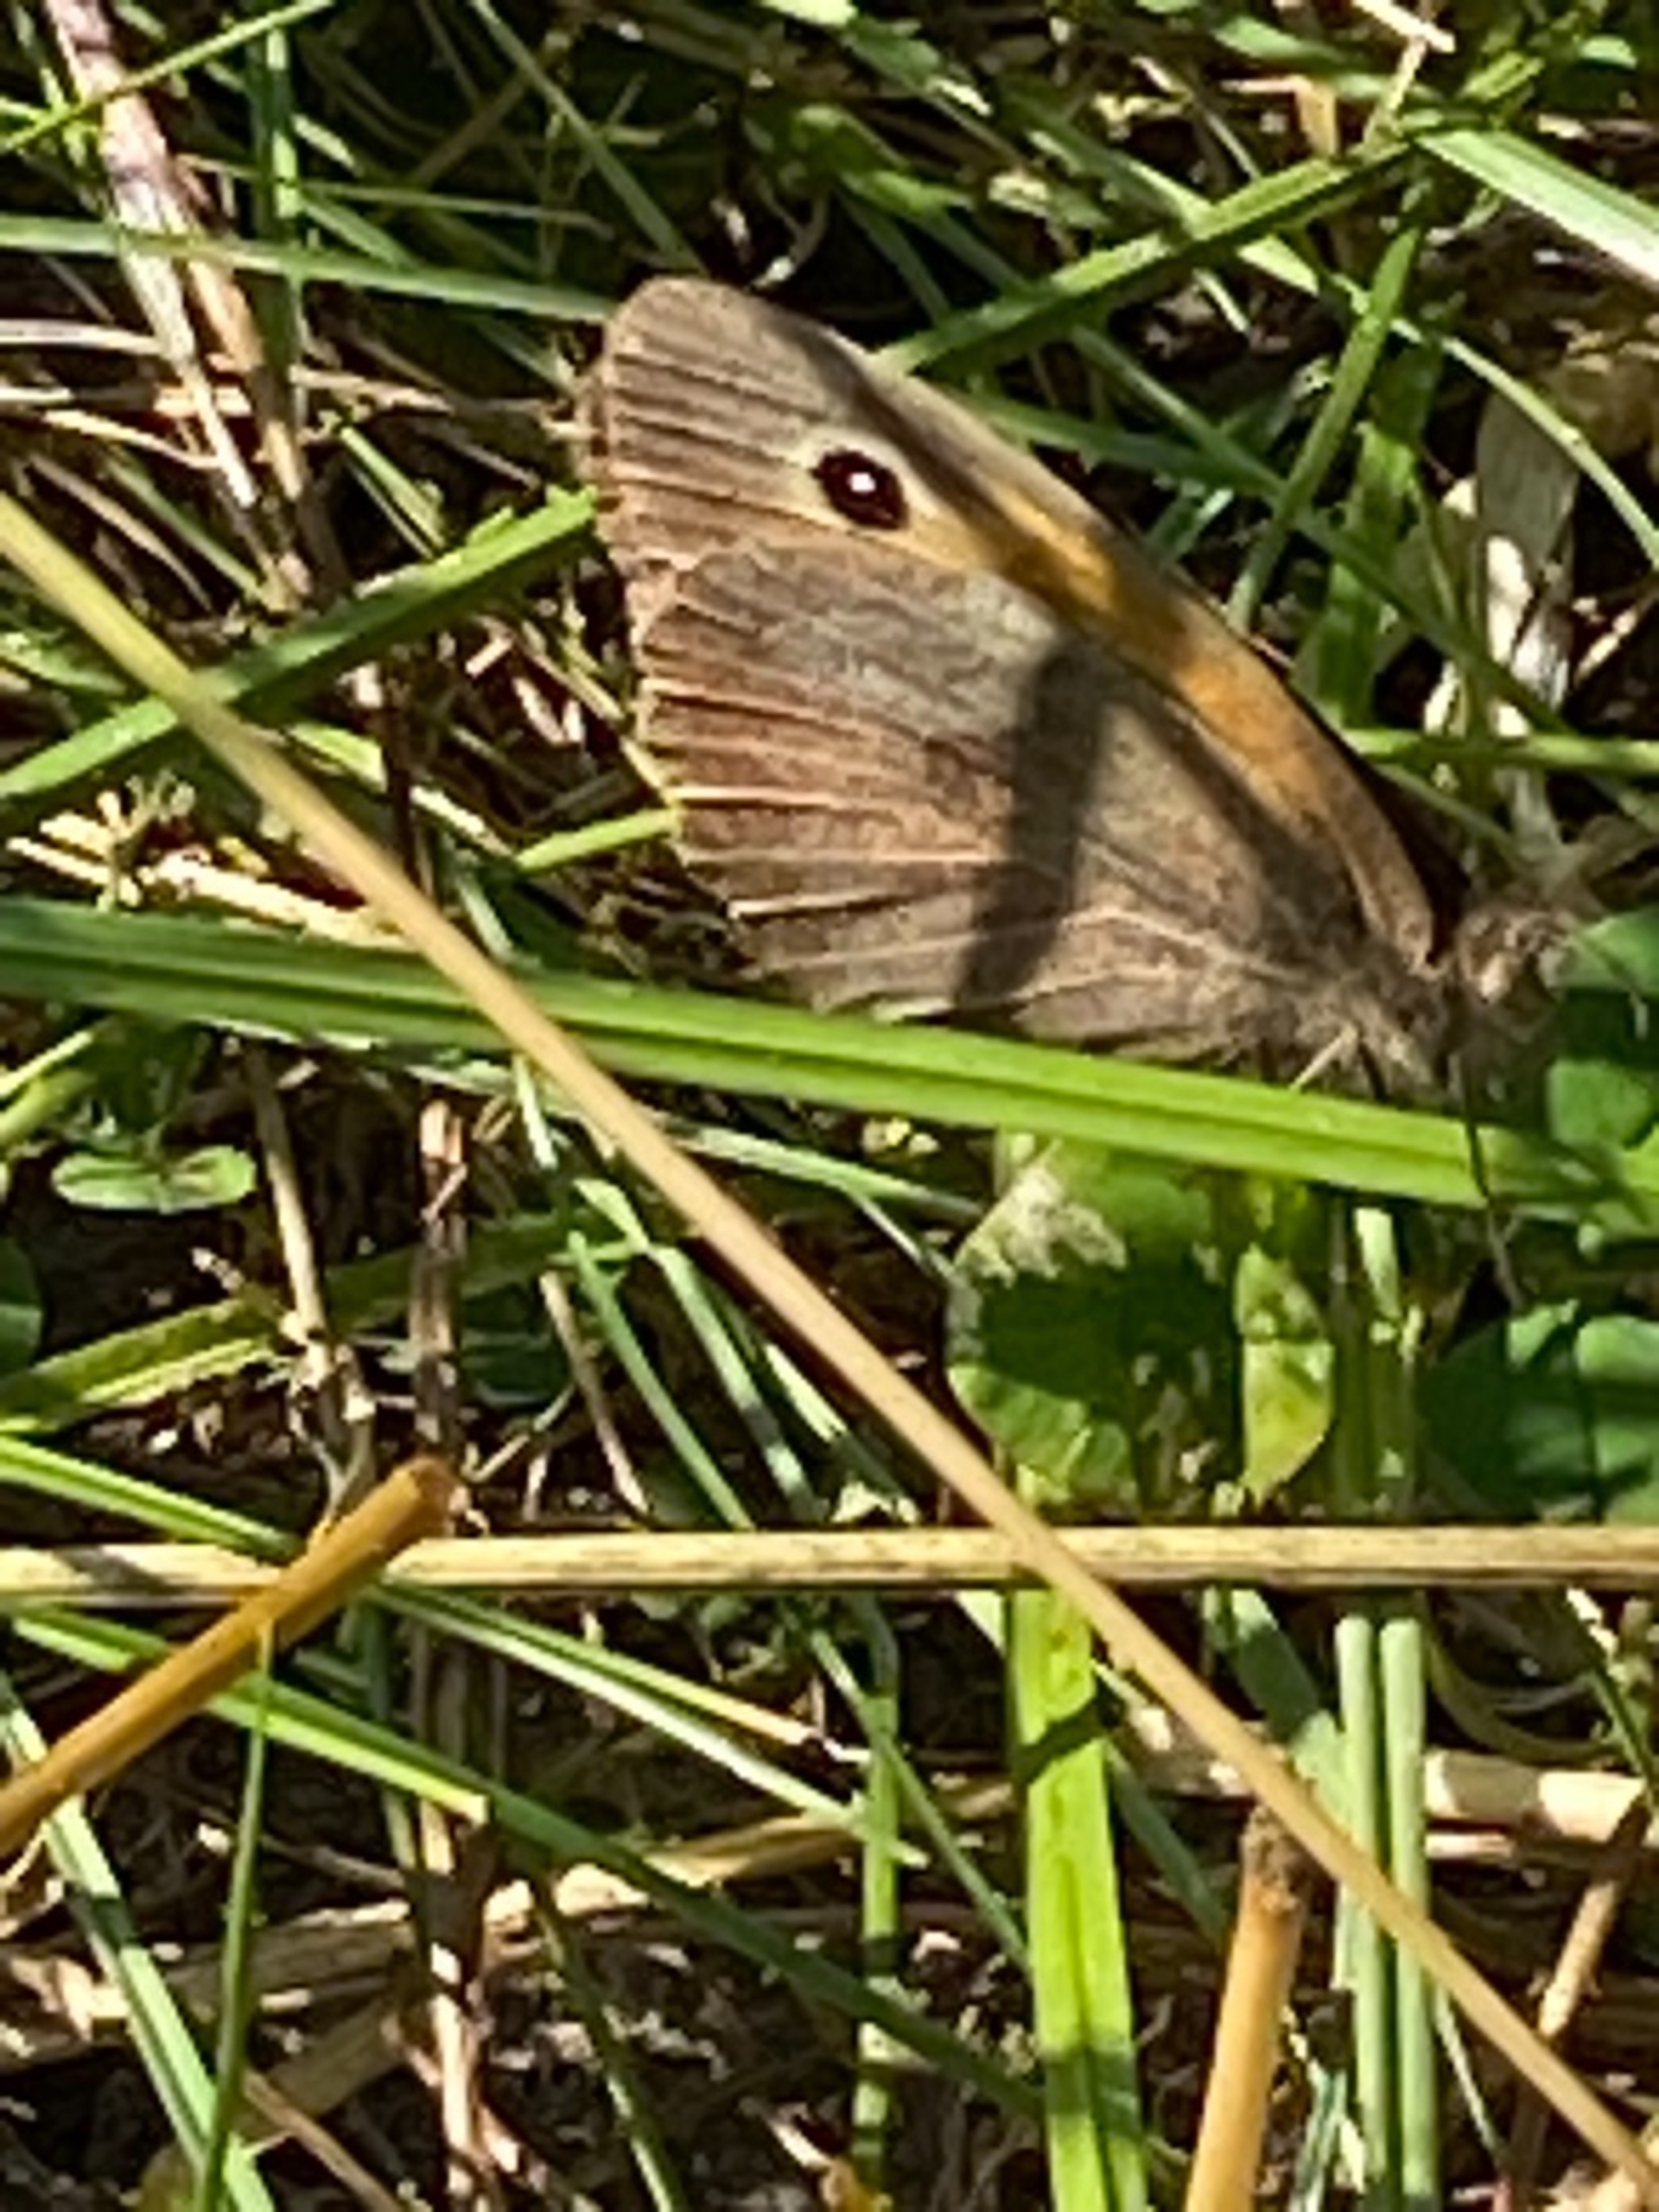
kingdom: Animalia
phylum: Arthropoda
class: Insecta
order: Lepidoptera
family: Nymphalidae
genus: Maniola
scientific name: Maniola jurtina
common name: Græsrandøje
